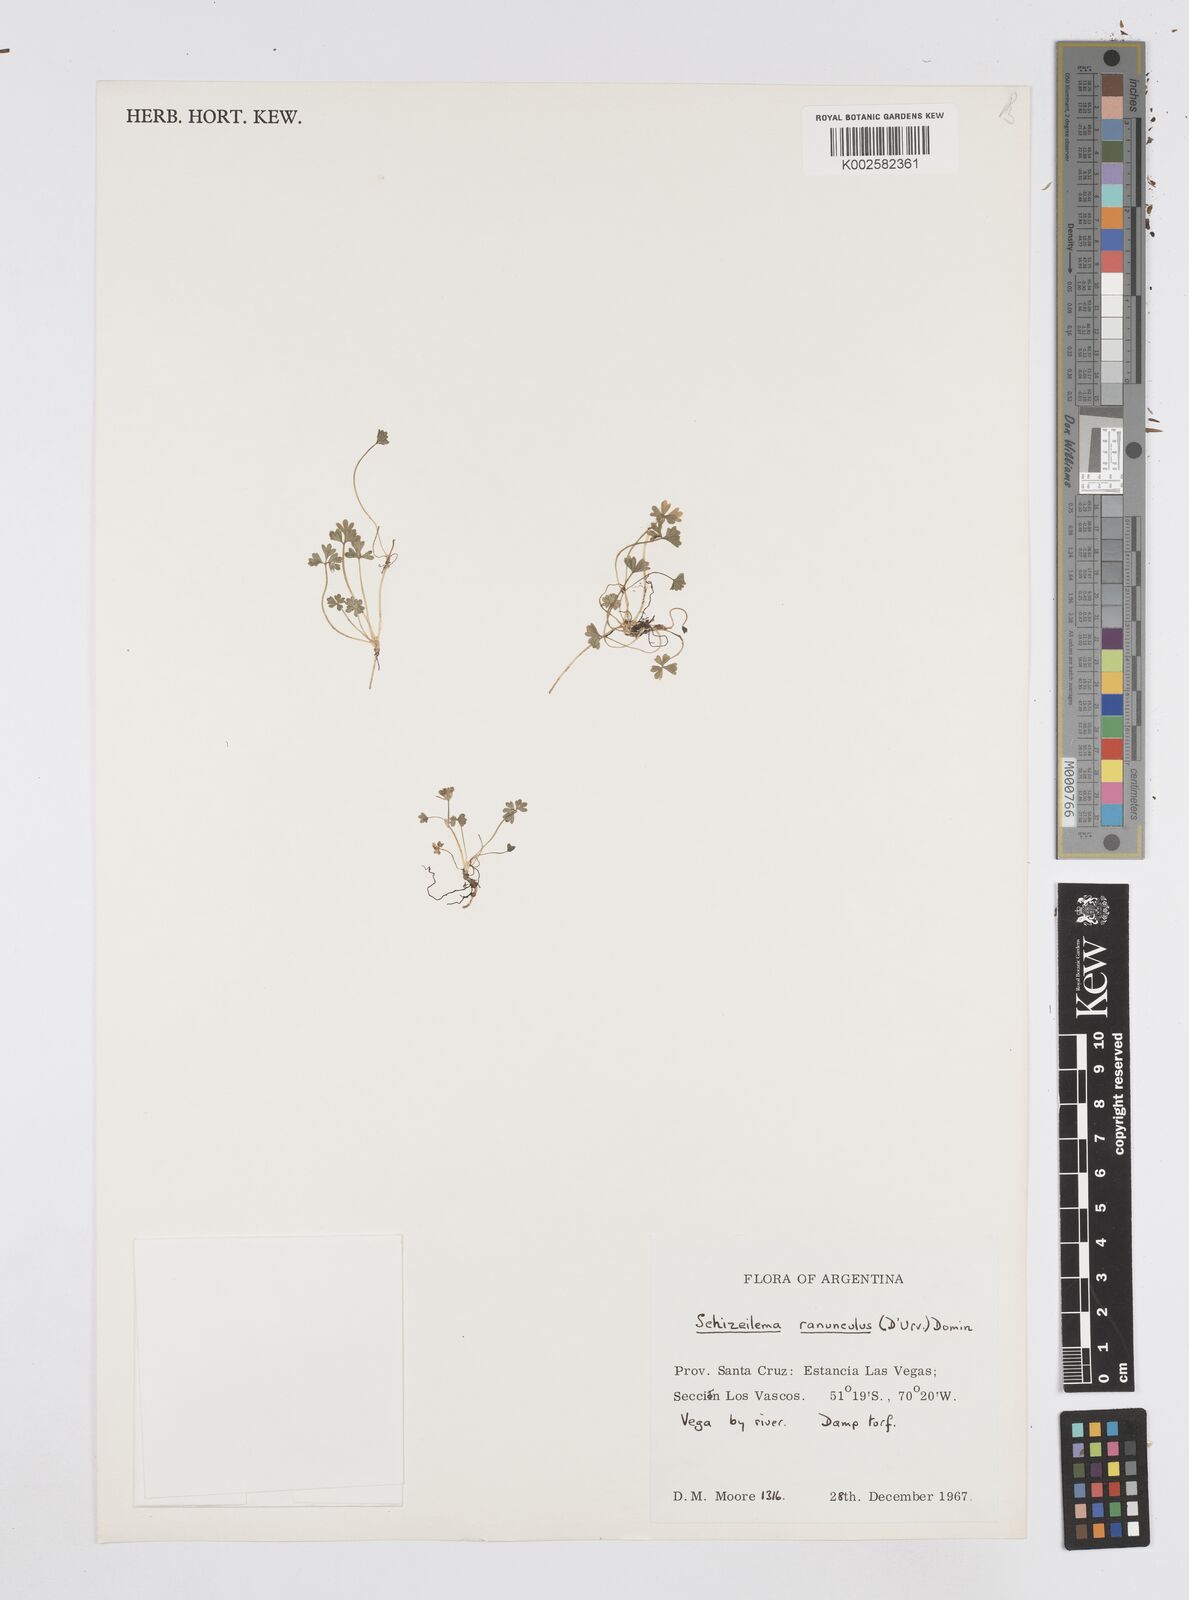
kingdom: Plantae
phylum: Tracheophyta
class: Magnoliopsida
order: Apiales
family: Apiaceae
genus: Azorella
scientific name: Azorella ranunculus
